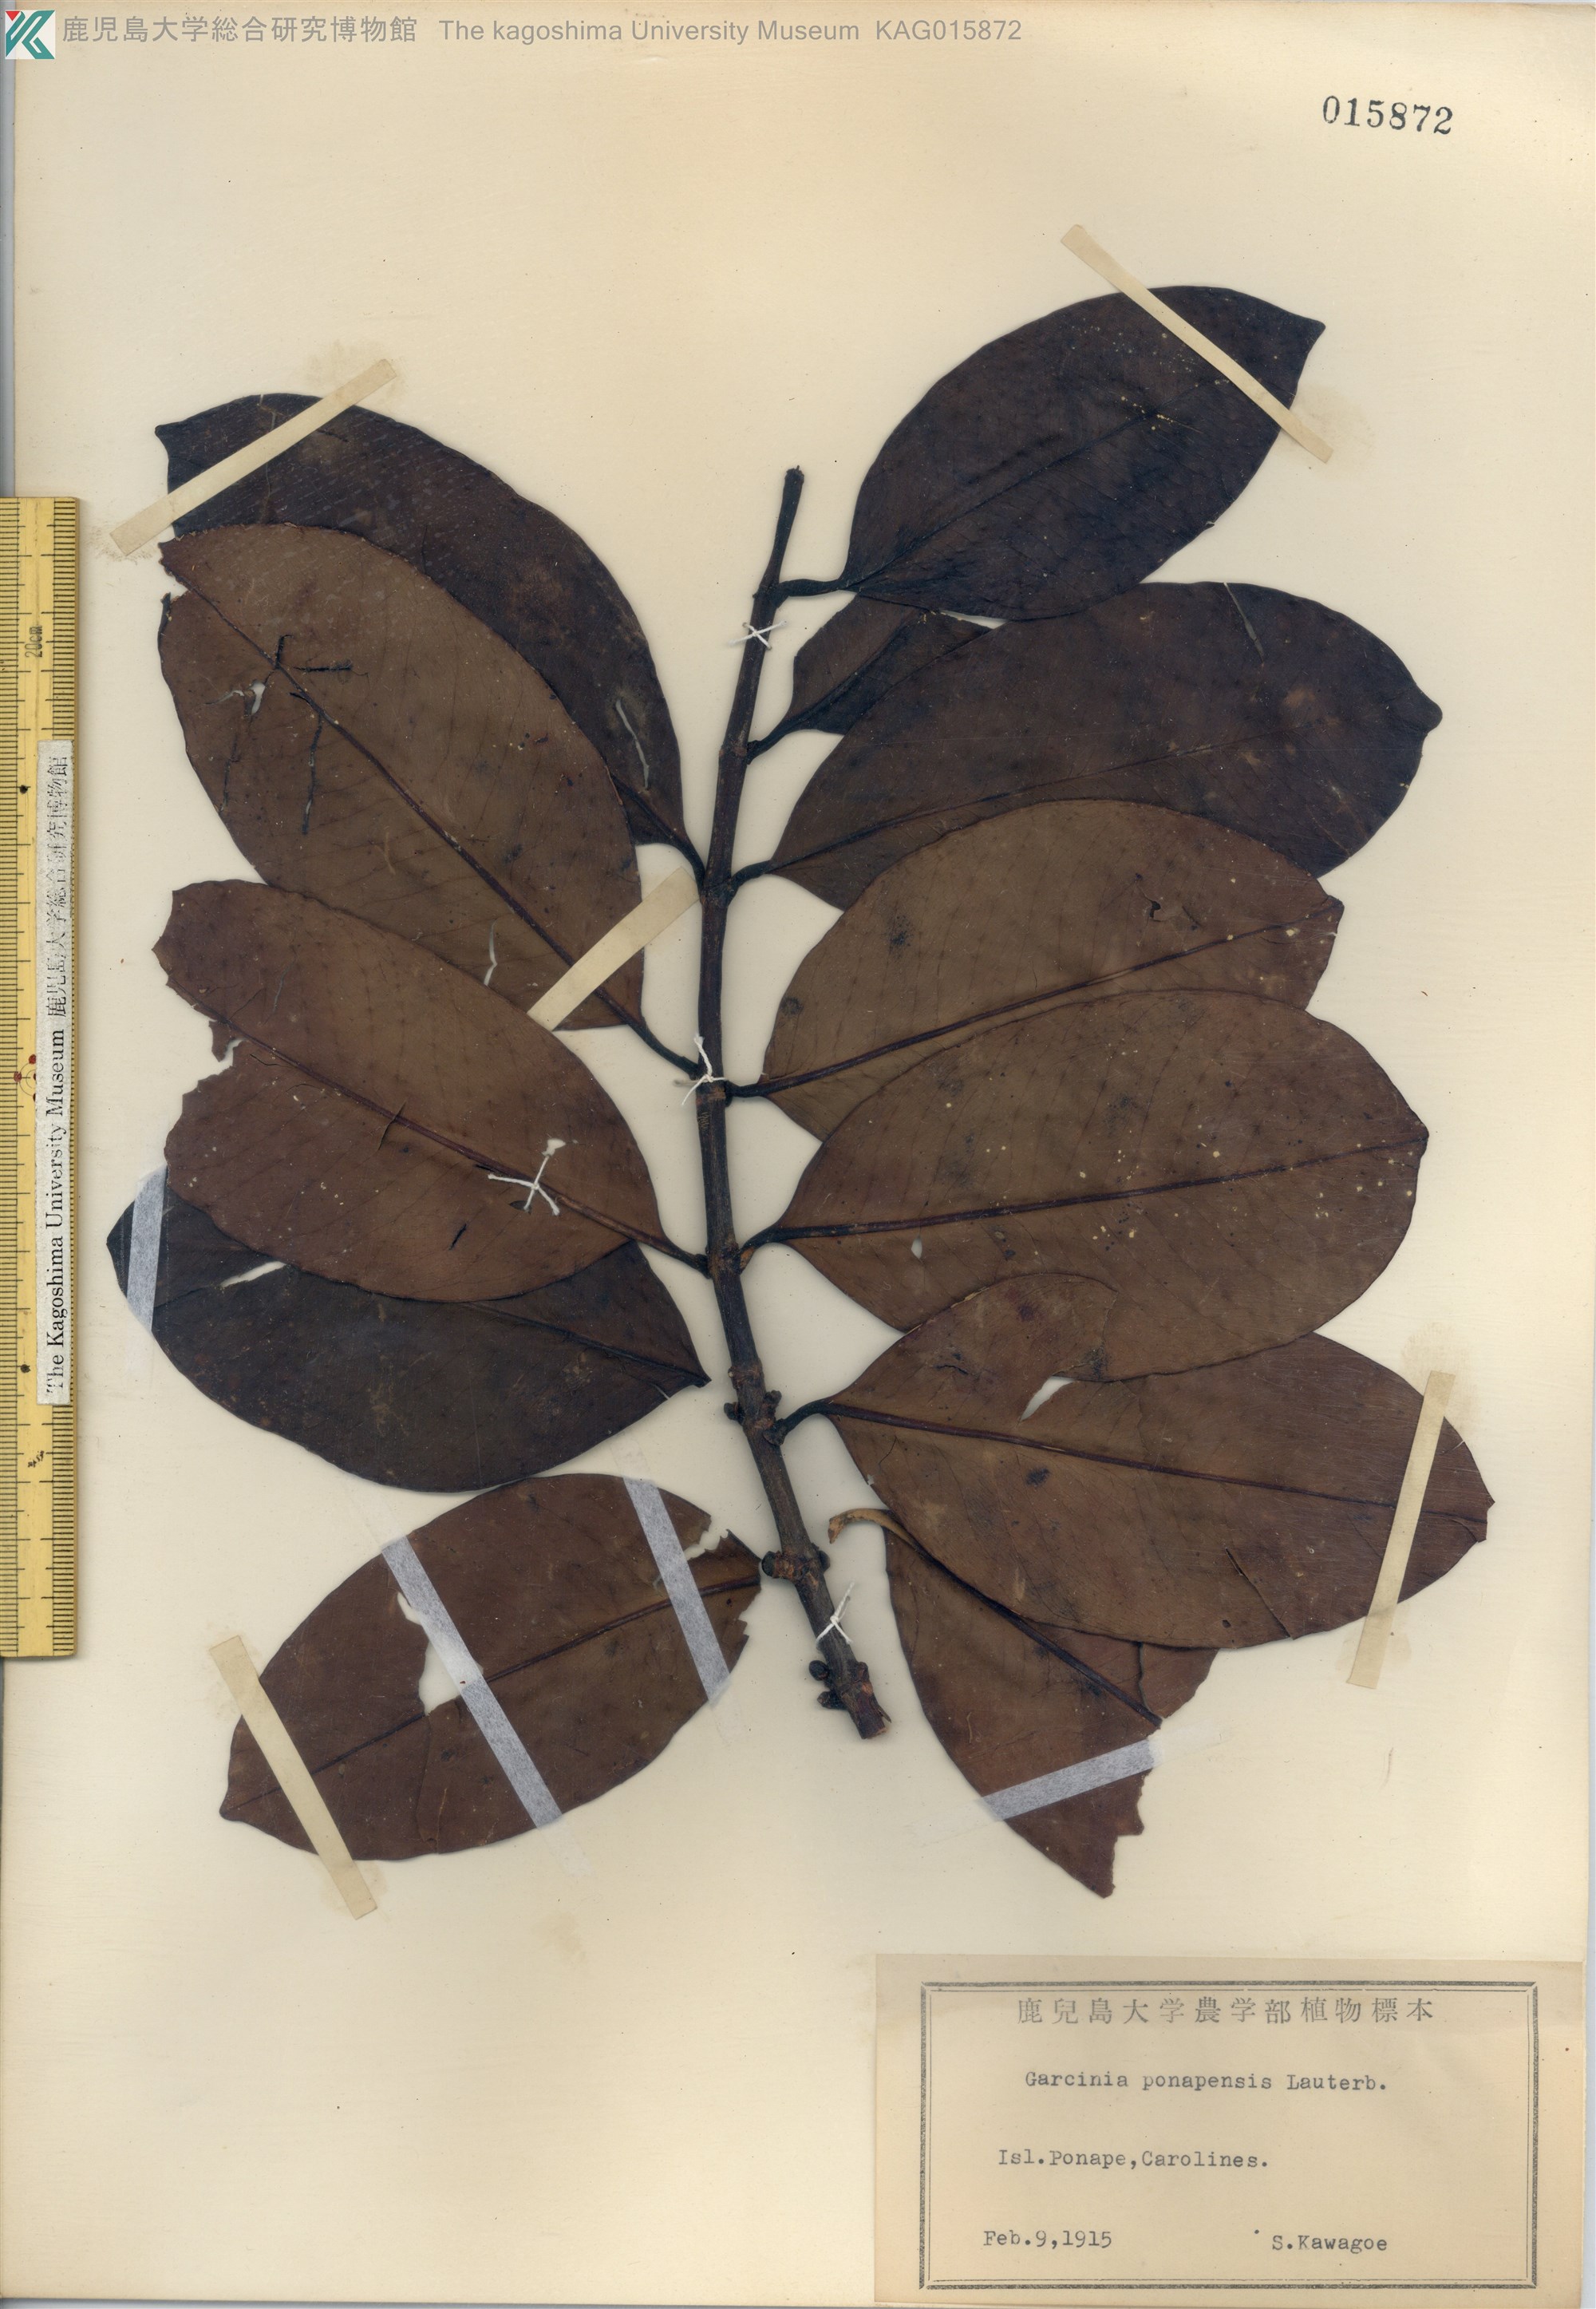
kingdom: Plantae
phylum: Tracheophyta
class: Magnoliopsida
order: Malpighiales
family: Clusiaceae
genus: Garcinia
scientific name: Garcinia ponapensis
